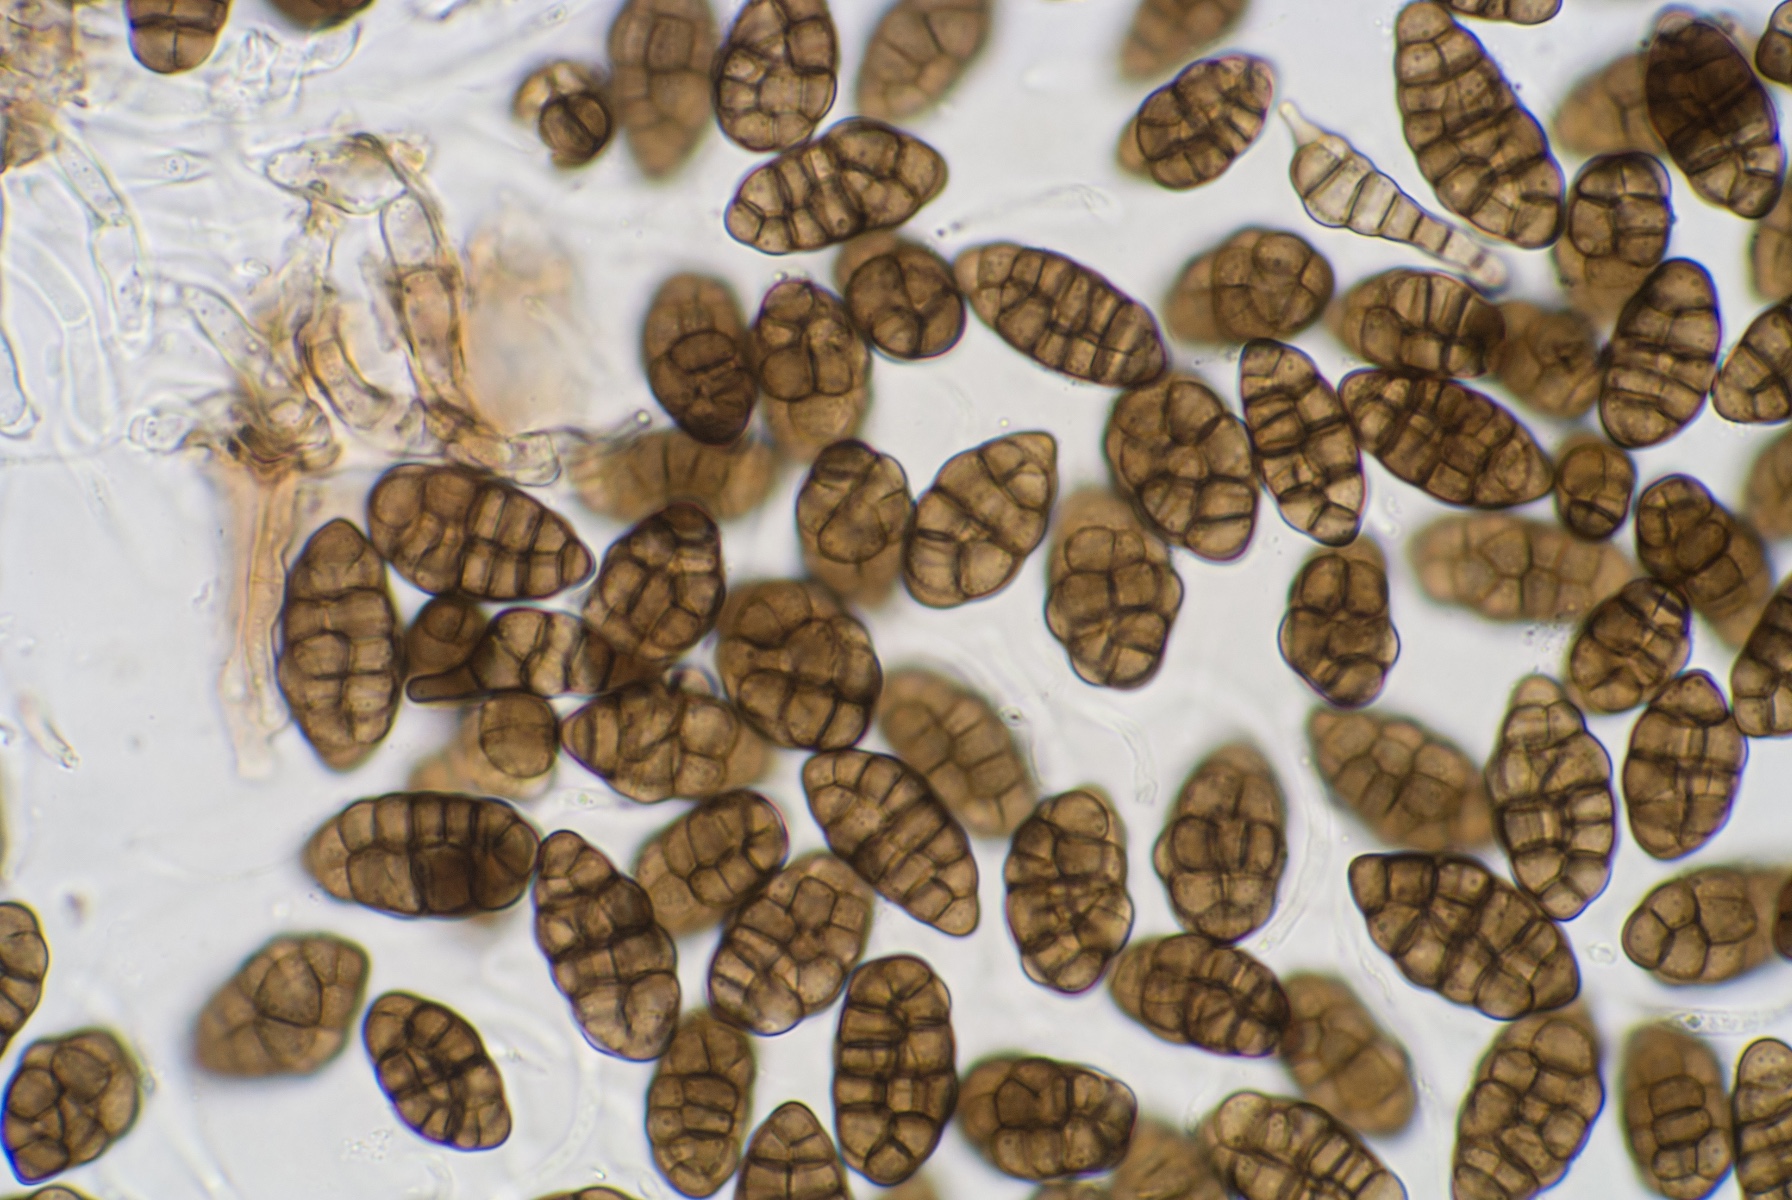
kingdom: Fungi
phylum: Ascomycota
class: Dothideomycetes
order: Botryosphaeriales
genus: Camarosporium
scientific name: Camarosporium
